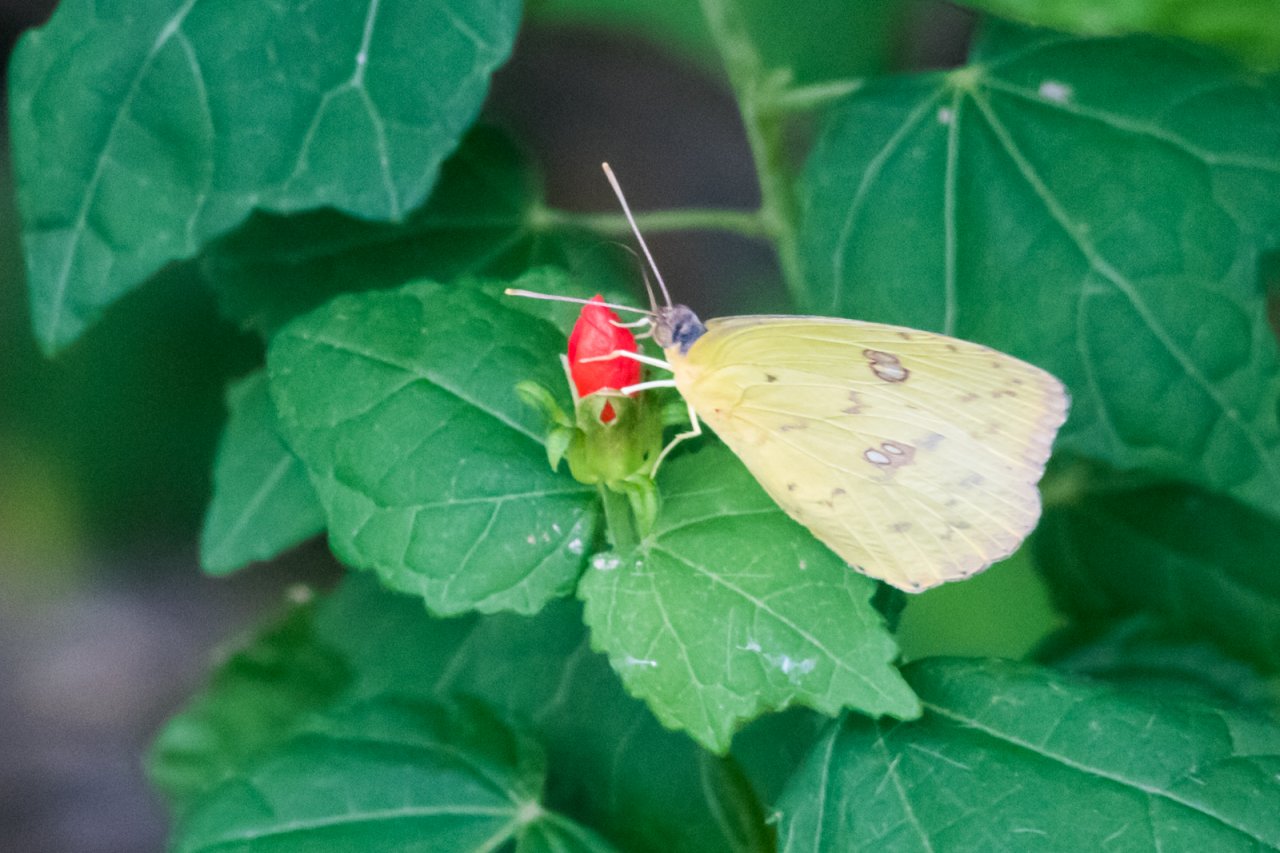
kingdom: Animalia
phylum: Arthropoda
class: Insecta
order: Lepidoptera
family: Pieridae
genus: Phoebis
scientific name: Phoebis sennae
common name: Cloudless Sulphur
